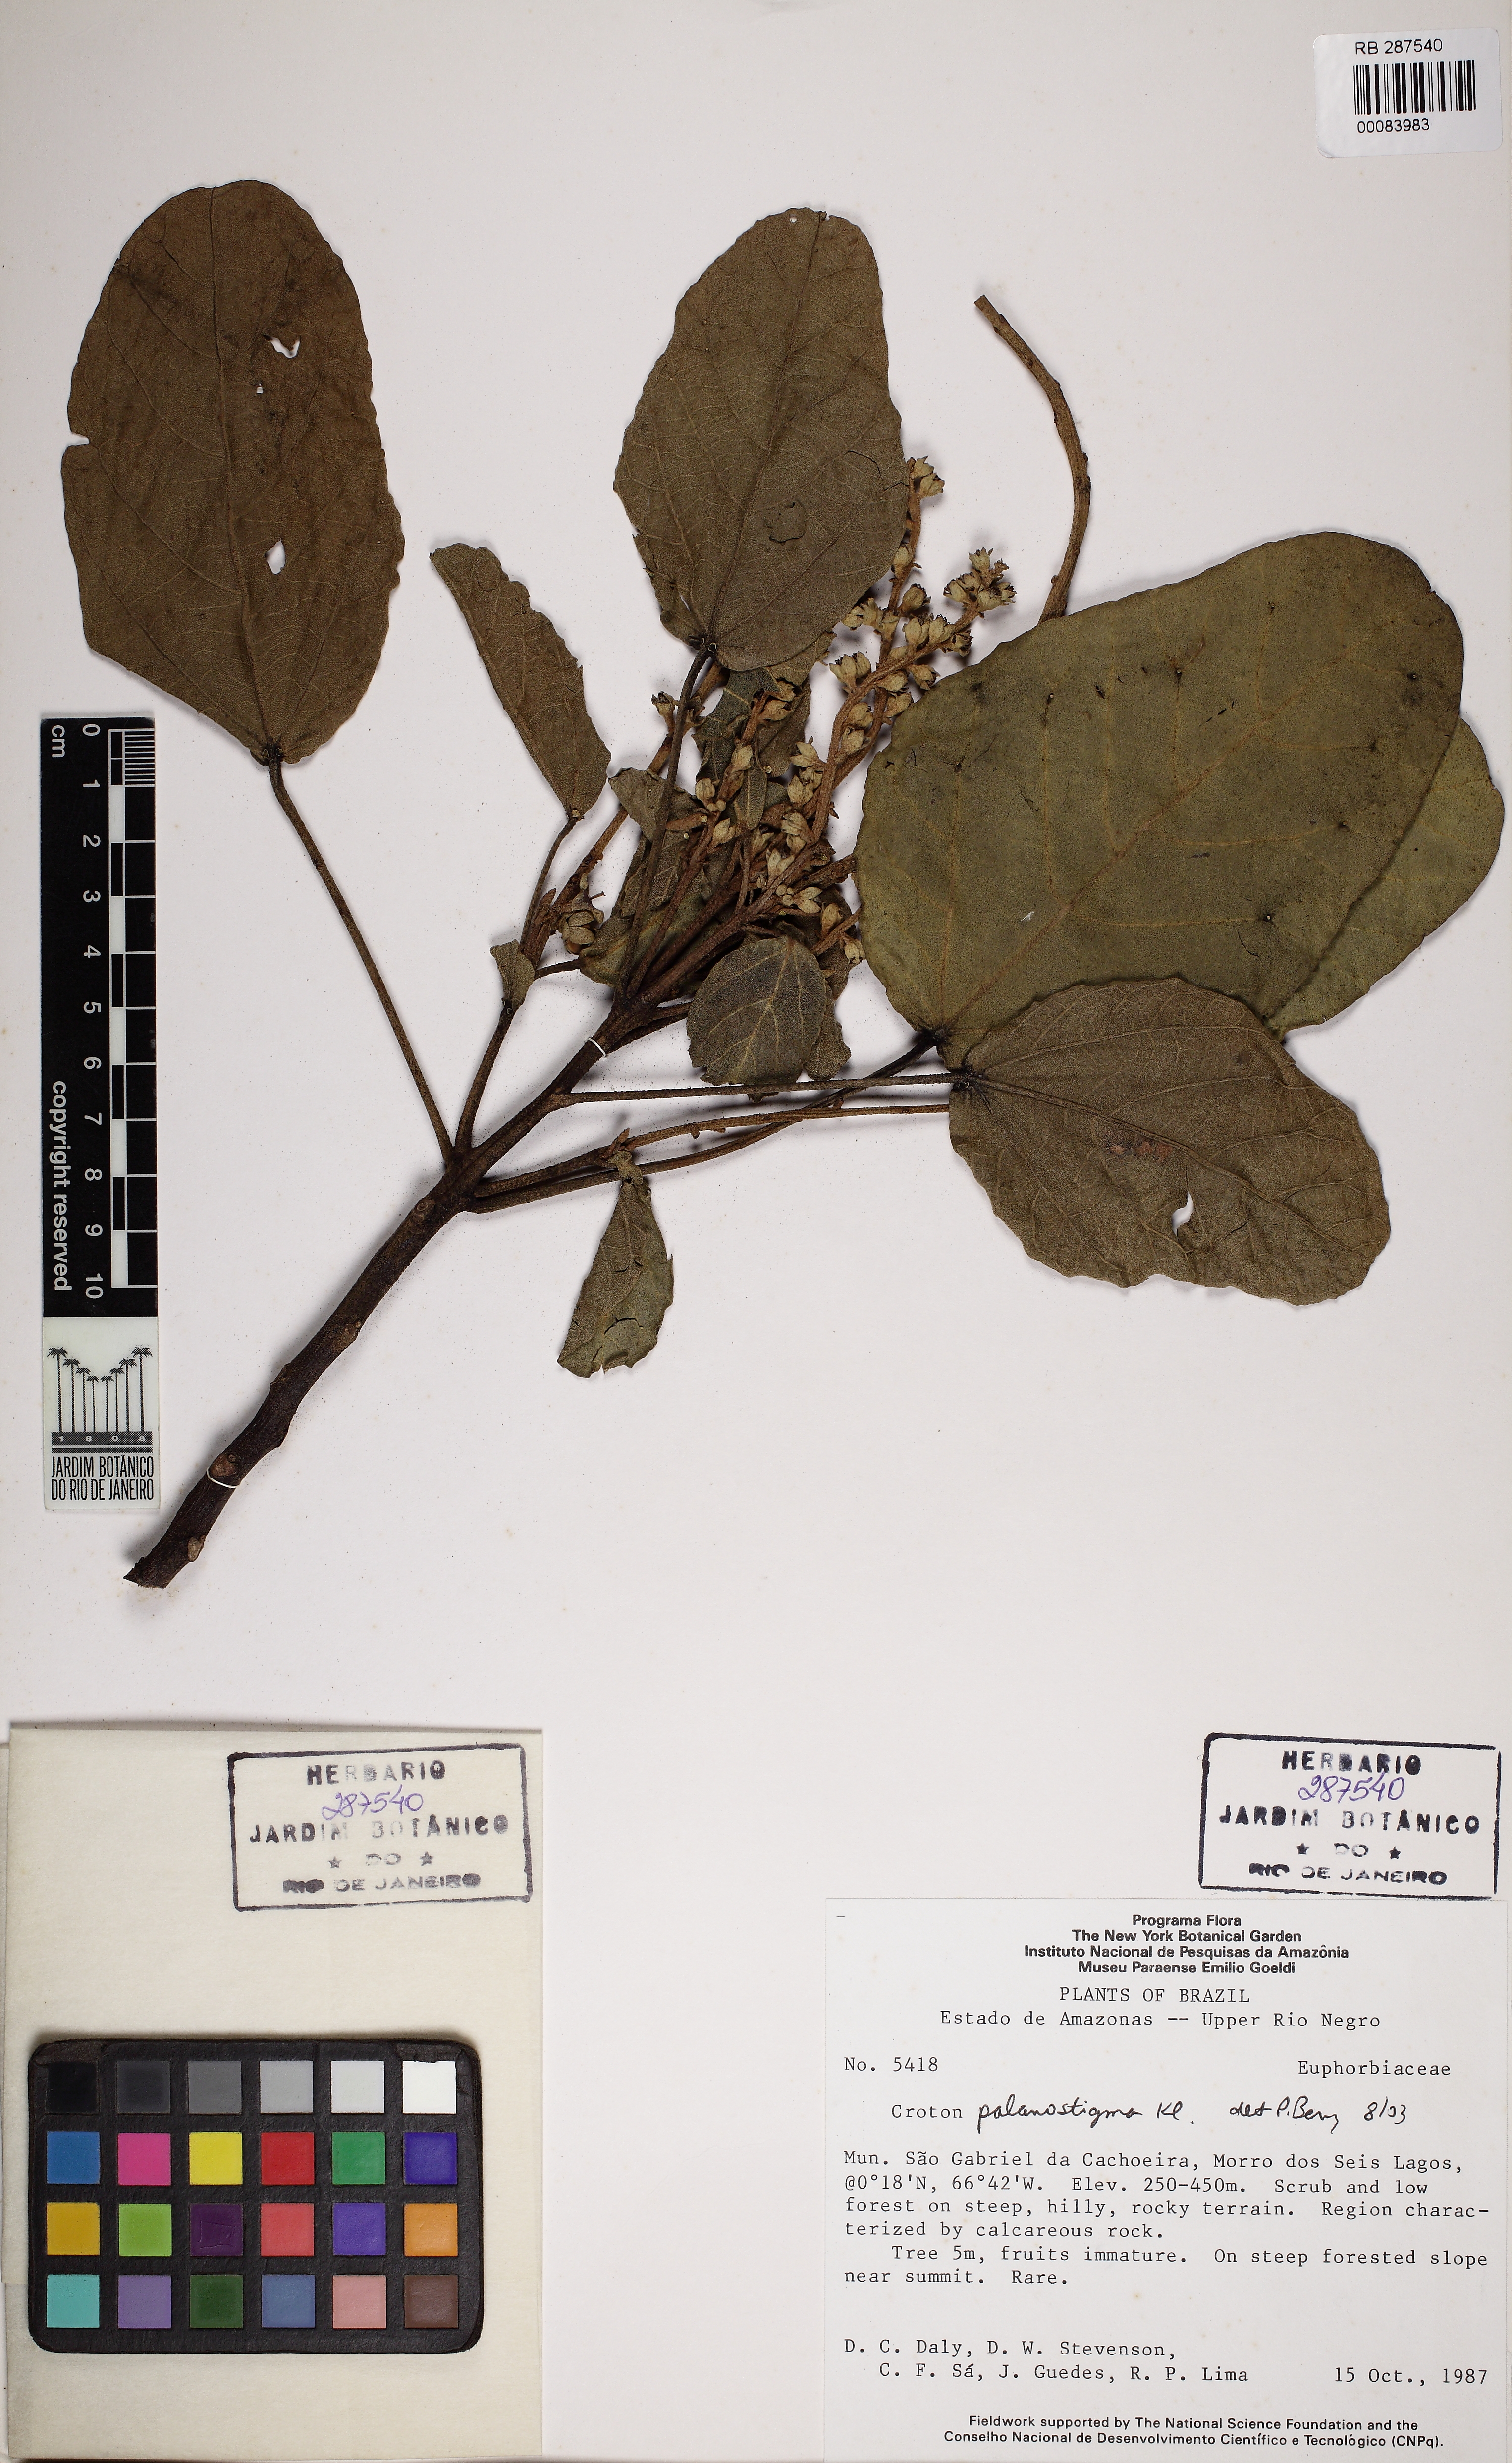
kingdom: Plantae
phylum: Tracheophyta
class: Magnoliopsida
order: Malpighiales
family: Euphorbiaceae
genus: Croton
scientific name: Croton palanostigma
